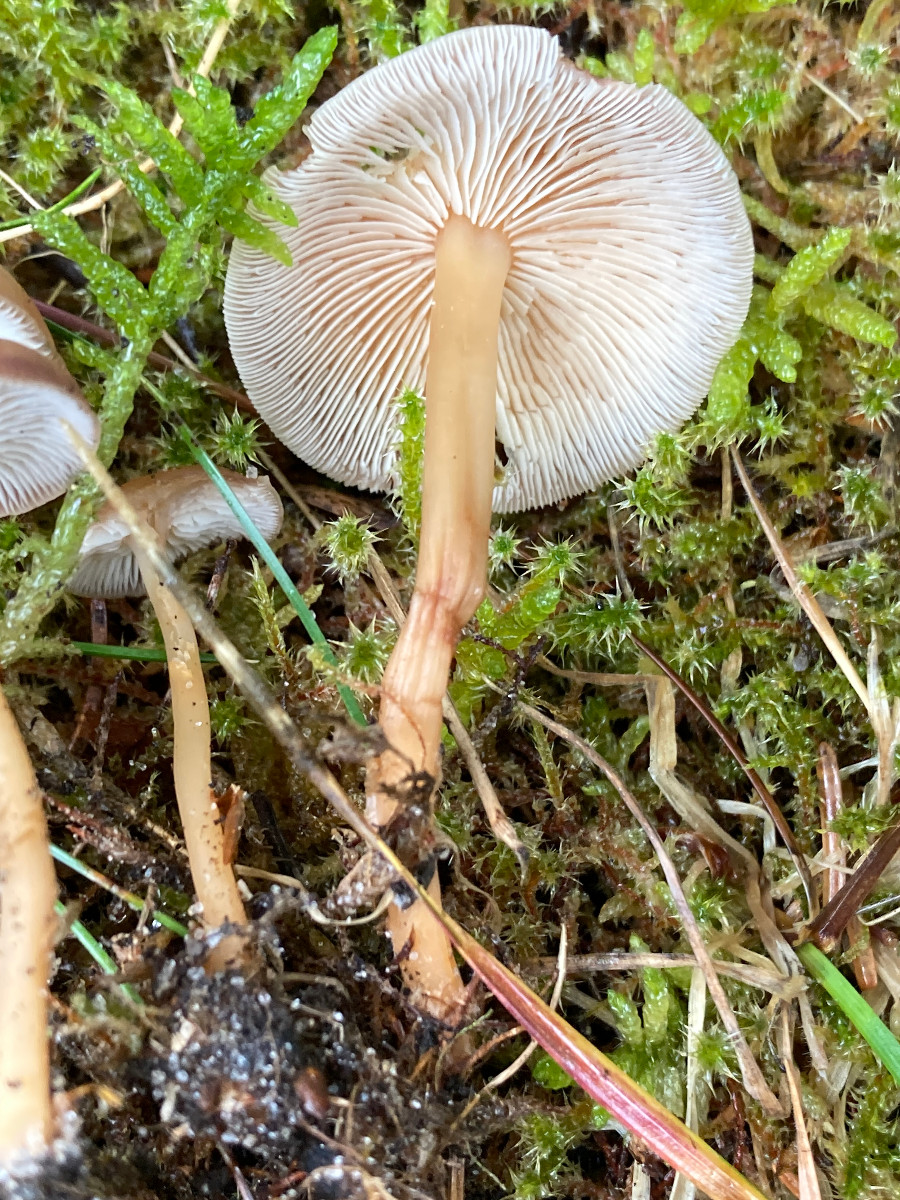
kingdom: Fungi
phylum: Basidiomycota
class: Agaricomycetes
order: Agaricales
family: Omphalotaceae
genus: Gymnopus
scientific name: Gymnopus
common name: fladhat
